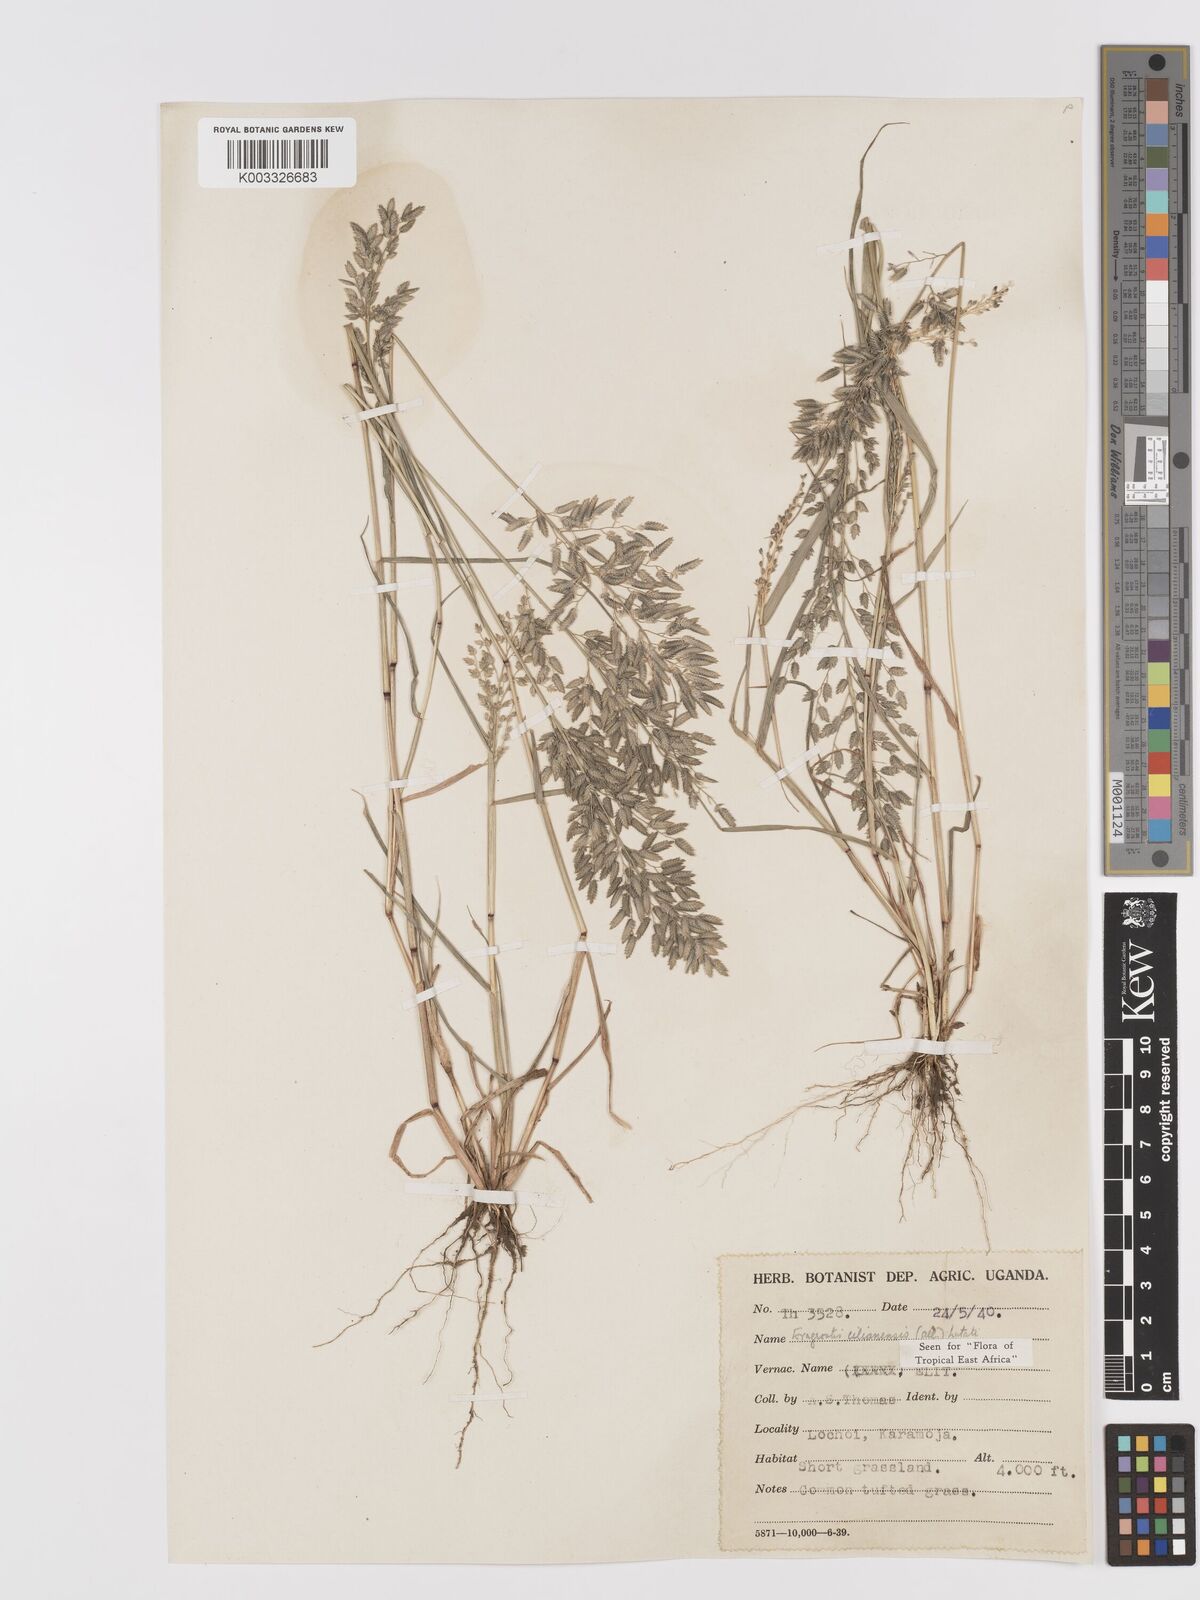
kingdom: Plantae
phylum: Tracheophyta
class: Liliopsida
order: Poales
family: Poaceae
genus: Eragrostis
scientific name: Eragrostis cilianensis
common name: Stinkgrass
